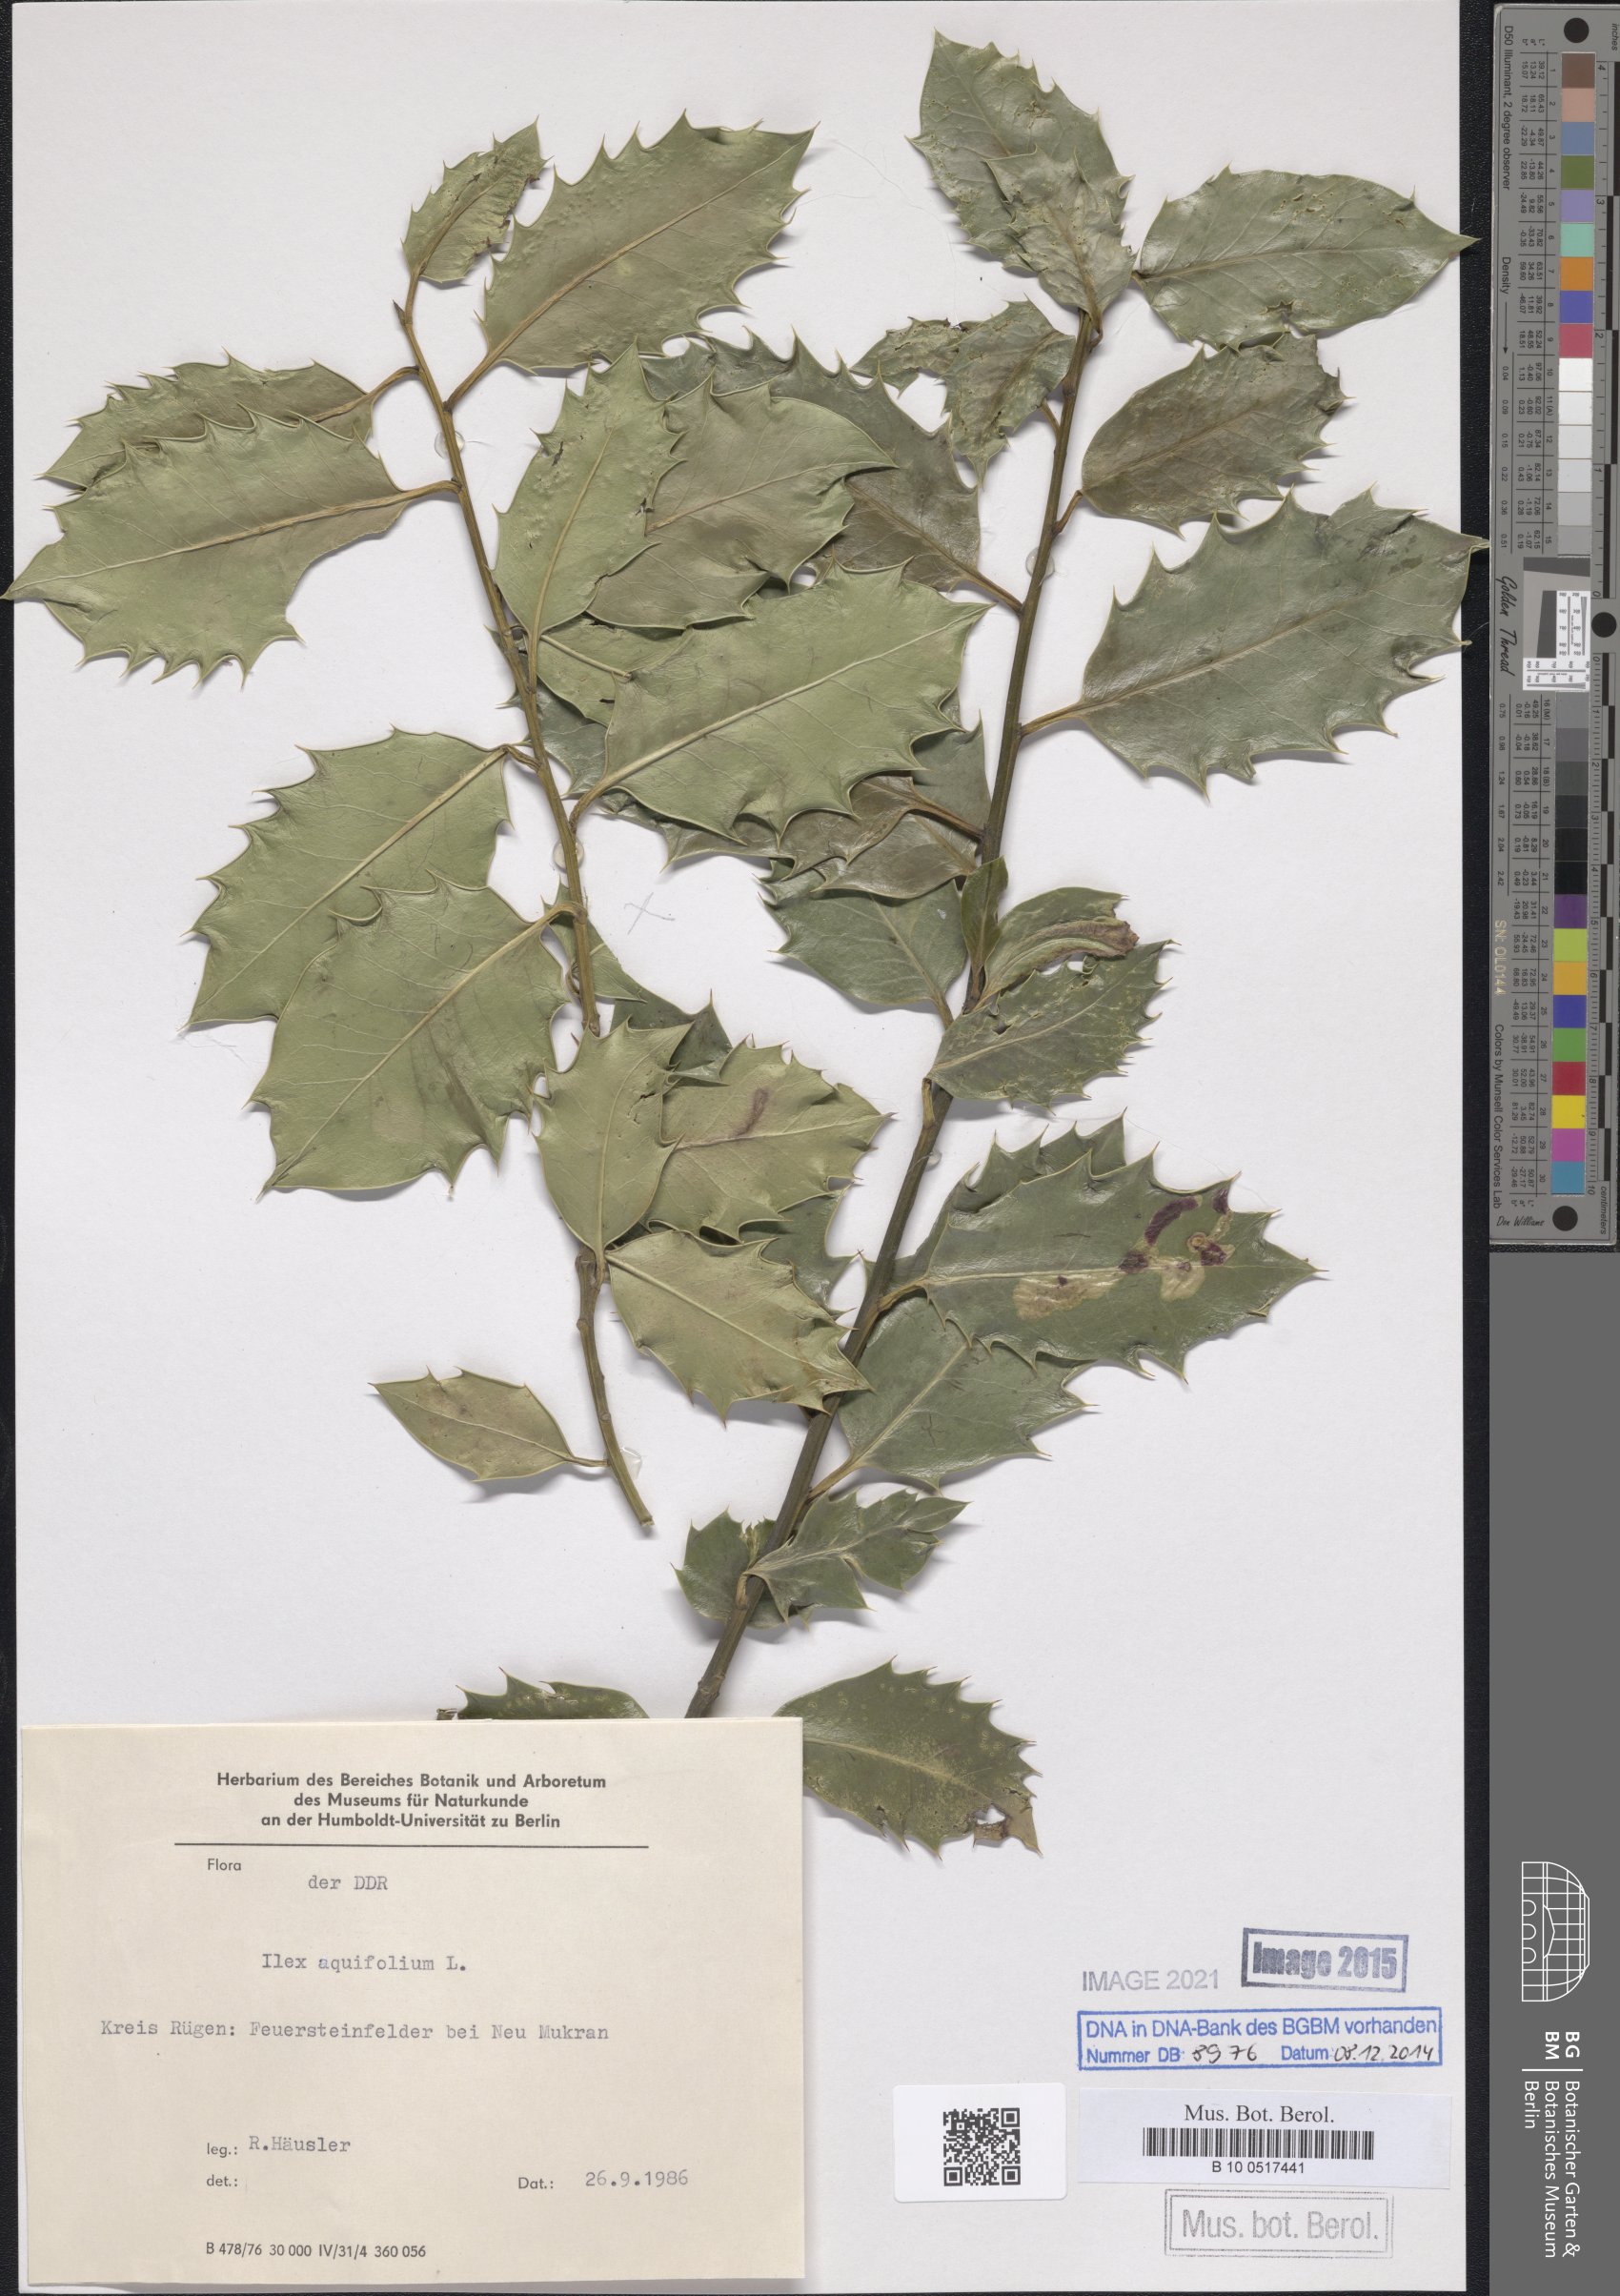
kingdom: Plantae
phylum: Tracheophyta
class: Magnoliopsida
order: Aquifoliales
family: Aquifoliaceae
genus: Ilex
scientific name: Ilex aquifolium
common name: English holly
